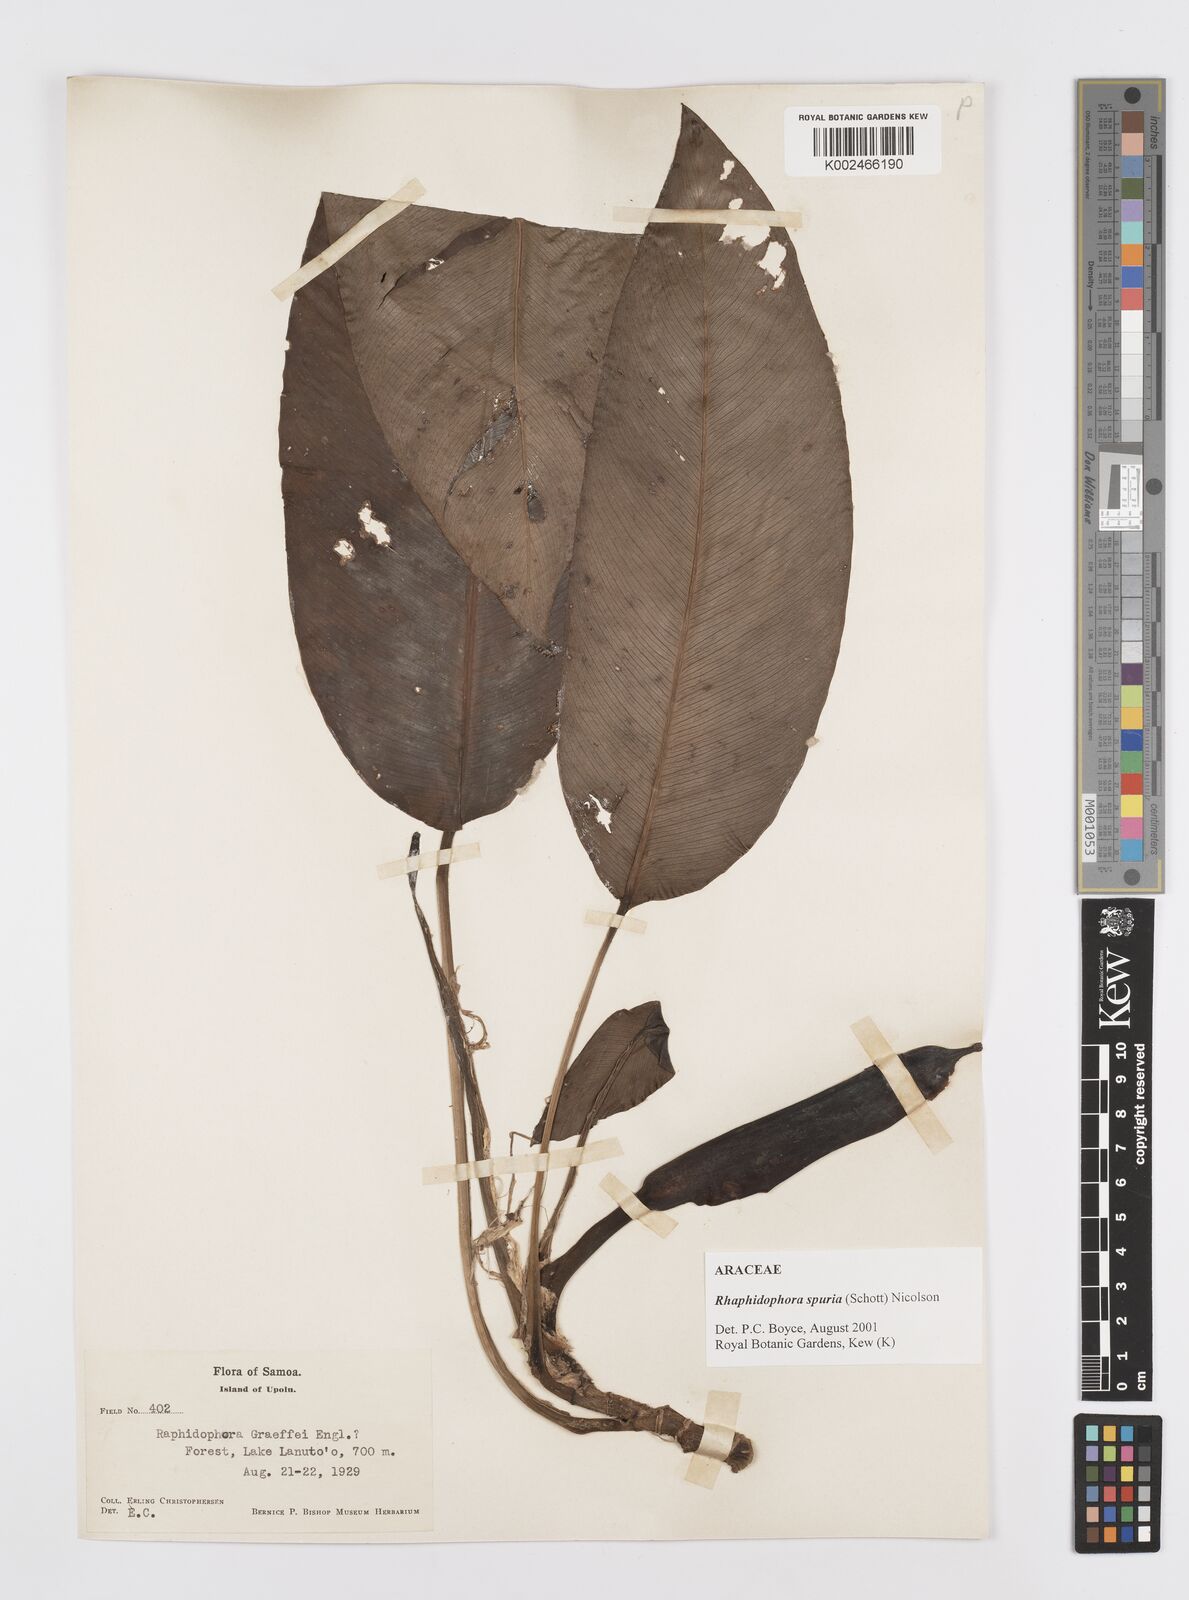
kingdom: Plantae
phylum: Tracheophyta
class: Liliopsida
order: Alismatales
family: Araceae
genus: Rhaphidophora
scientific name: Rhaphidophora spuria
